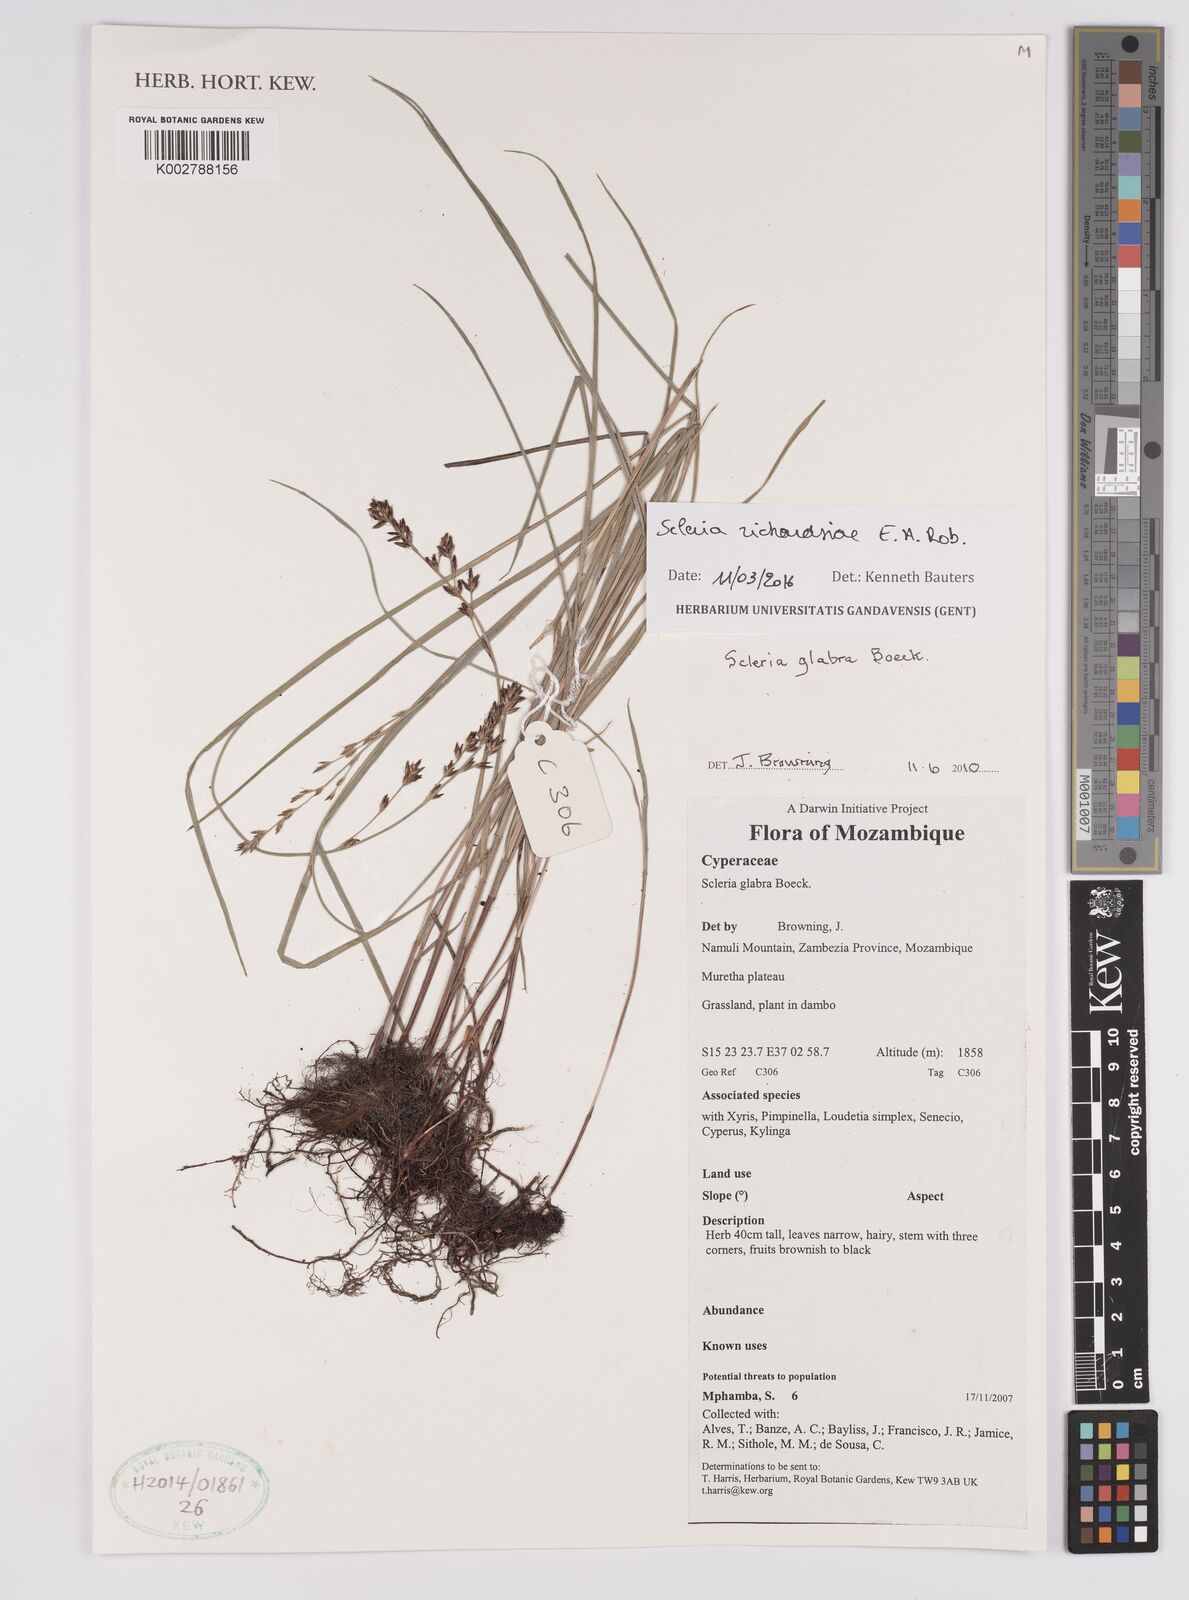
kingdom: Plantae
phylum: Tracheophyta
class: Liliopsida
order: Poales
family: Cyperaceae
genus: Scleria
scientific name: Scleria richardsiae
